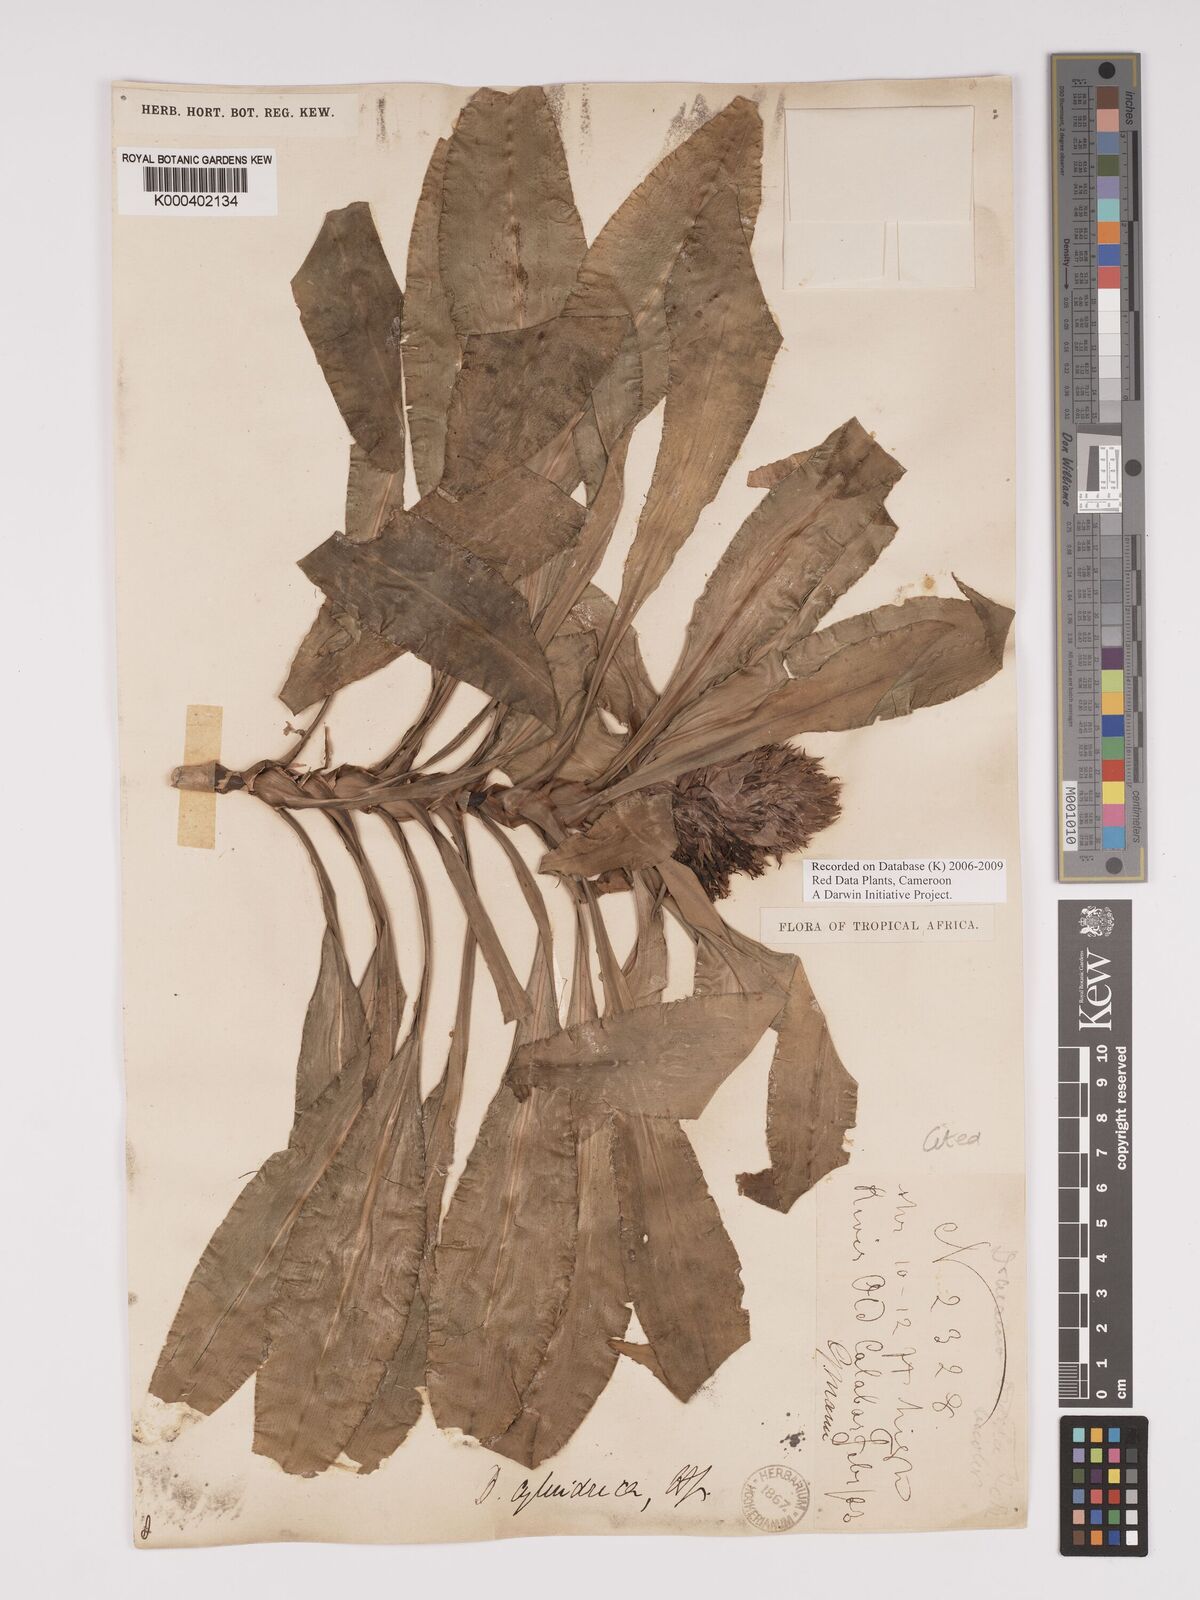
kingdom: Plantae
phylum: Tracheophyta
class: Liliopsida
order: Asparagales
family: Asparagaceae
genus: Dracaena
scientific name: Dracaena bicolor
